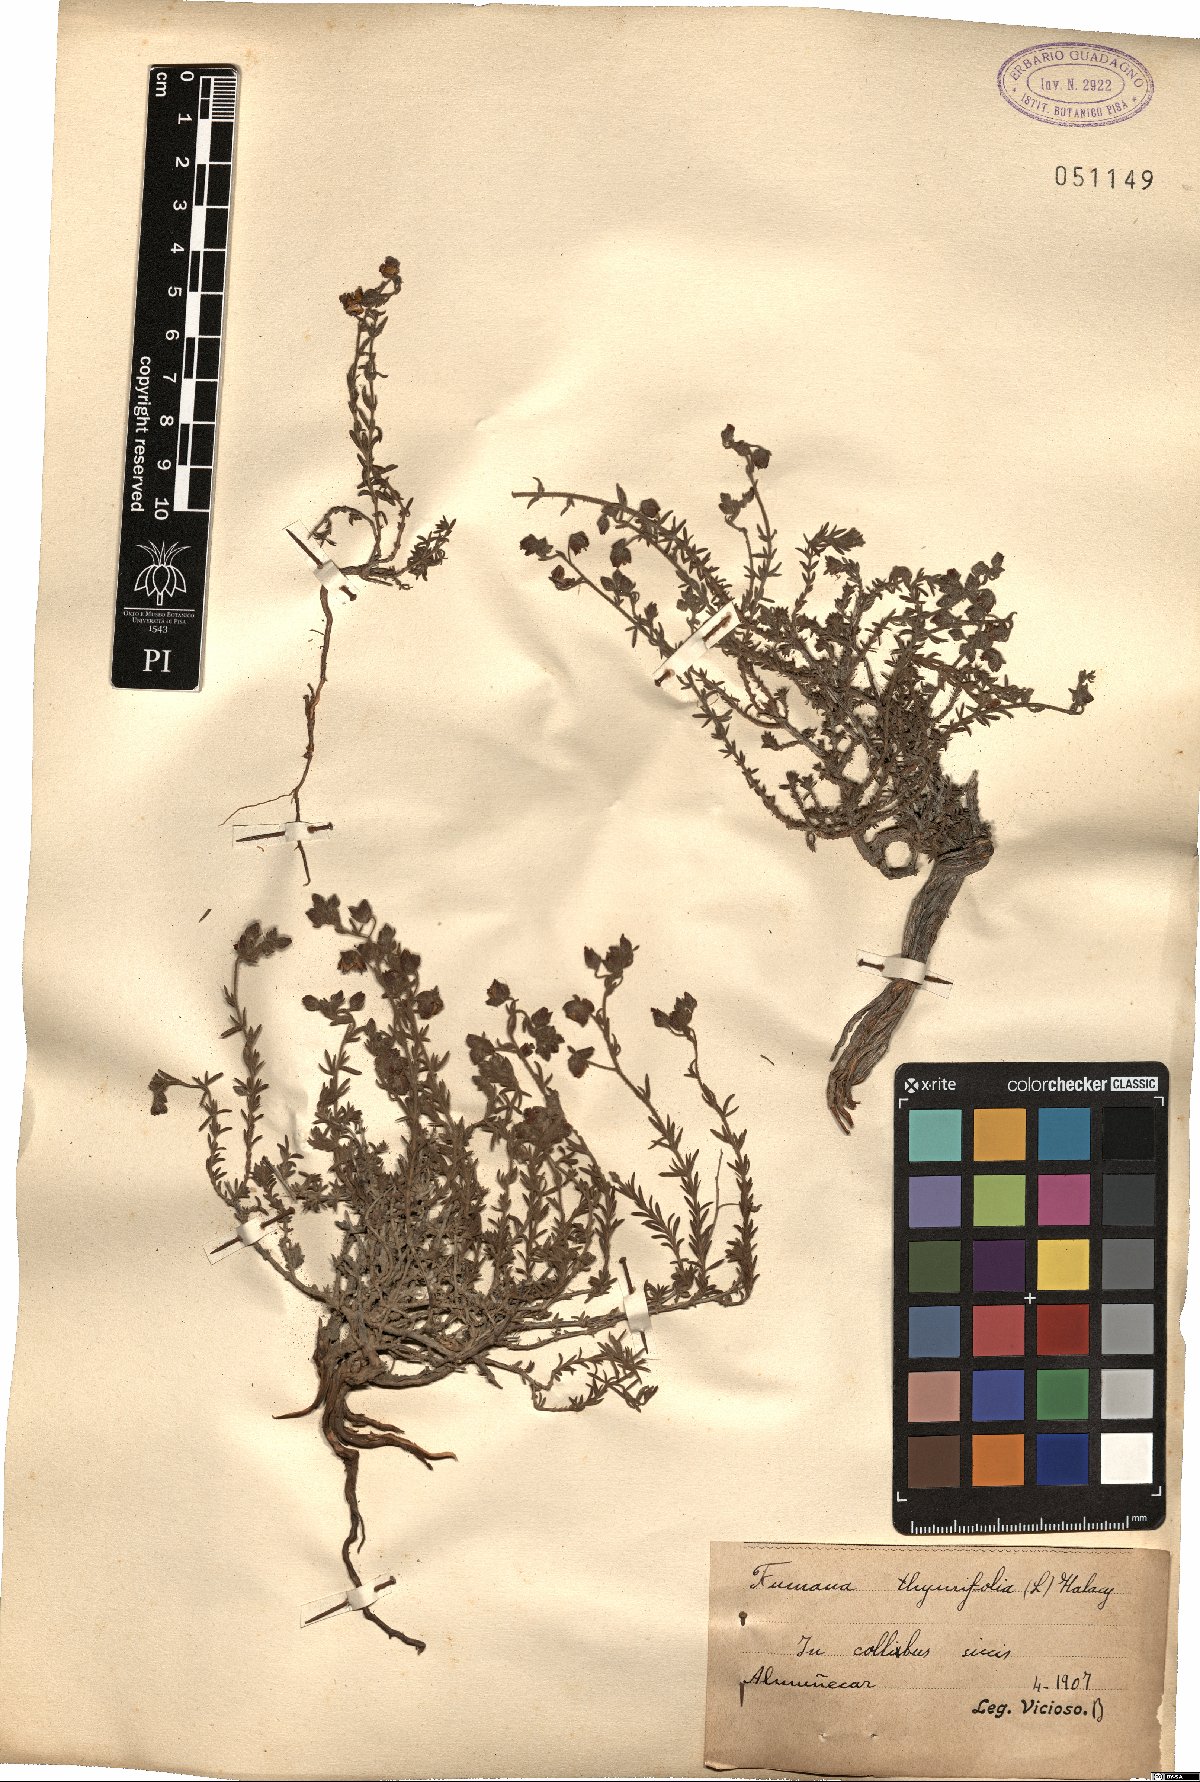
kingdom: Plantae
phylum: Tracheophyta
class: Magnoliopsida
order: Malvales
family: Cistaceae
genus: Fumana
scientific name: Fumana thymifolia
